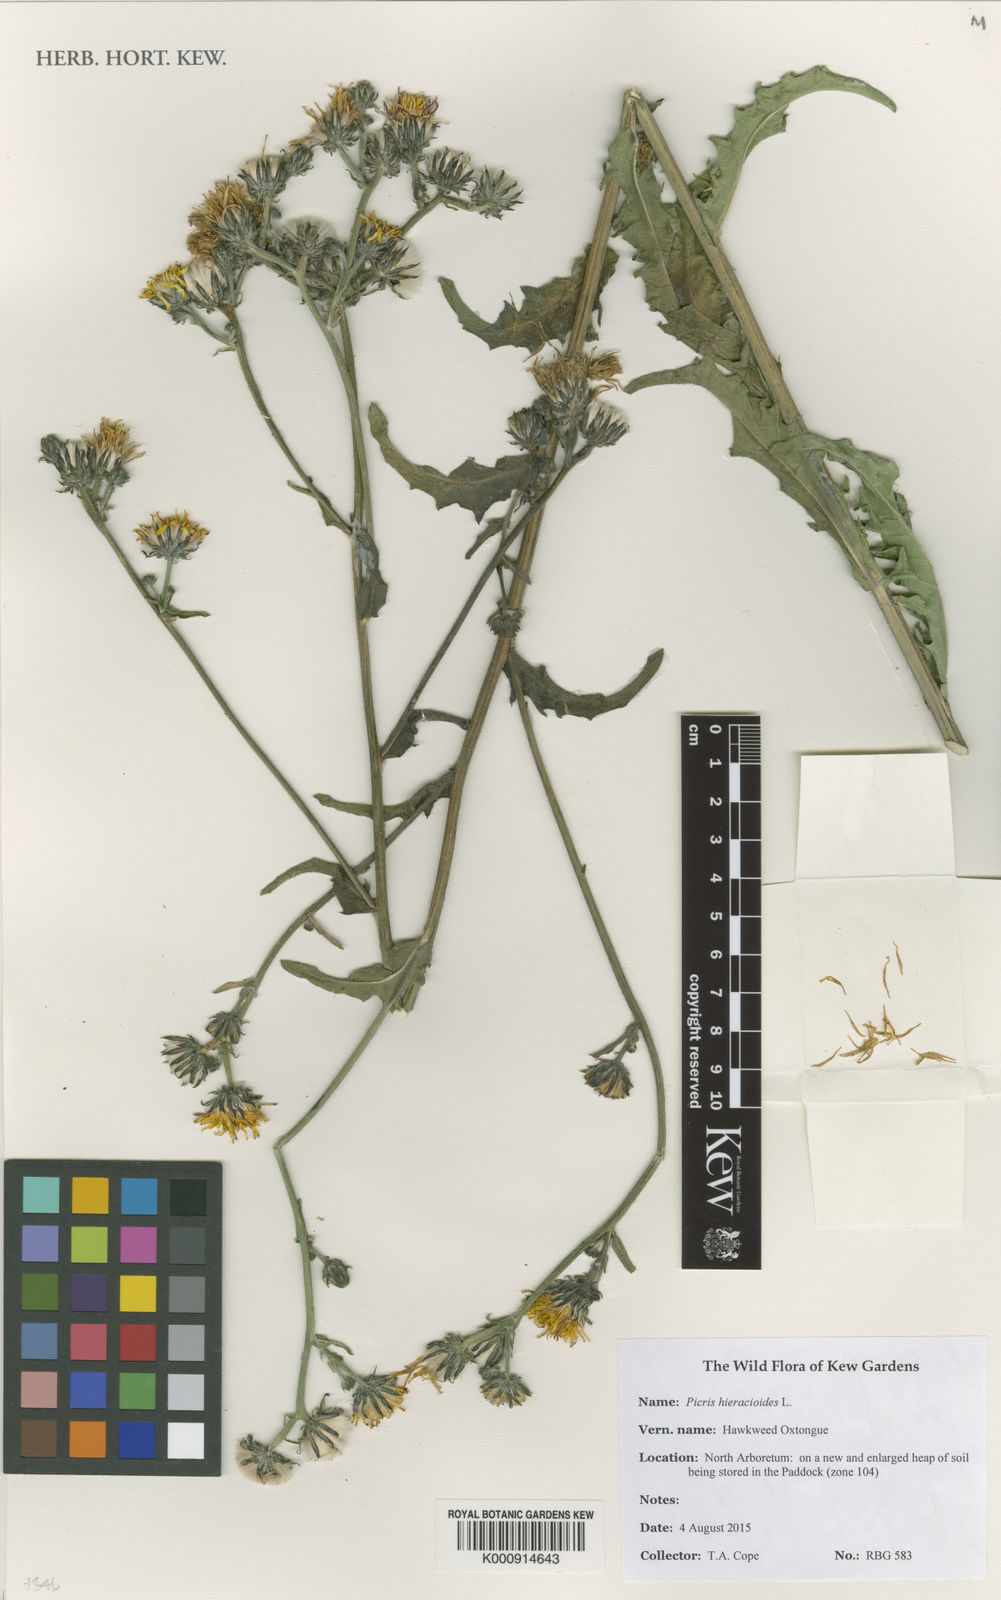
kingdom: Plantae
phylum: Tracheophyta
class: Magnoliopsida
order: Asterales
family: Asteraceae
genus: Picris
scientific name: Picris hieracioides
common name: Hawkweed oxtongue
